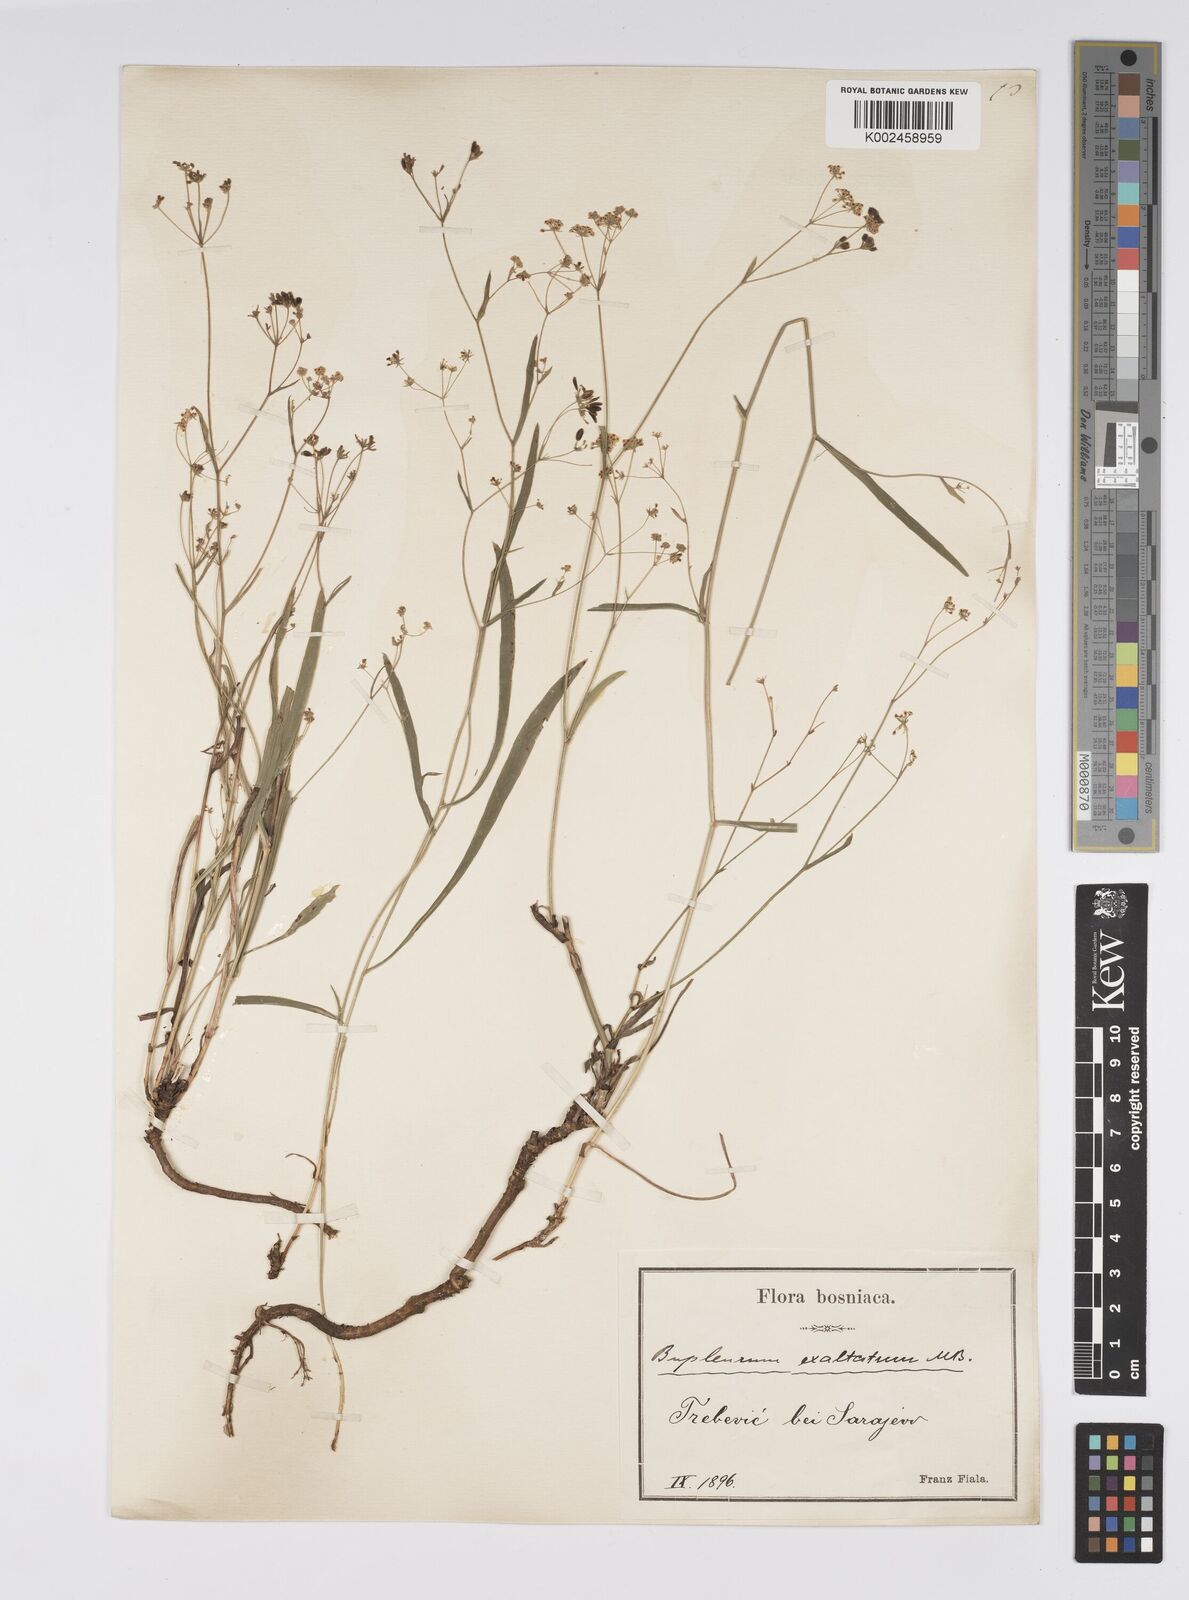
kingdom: Plantae
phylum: Tracheophyta
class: Magnoliopsida
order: Apiales
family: Apiaceae
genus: Bupleurum
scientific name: Bupleurum falcatum
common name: Sickle-leaved hare's-ear
